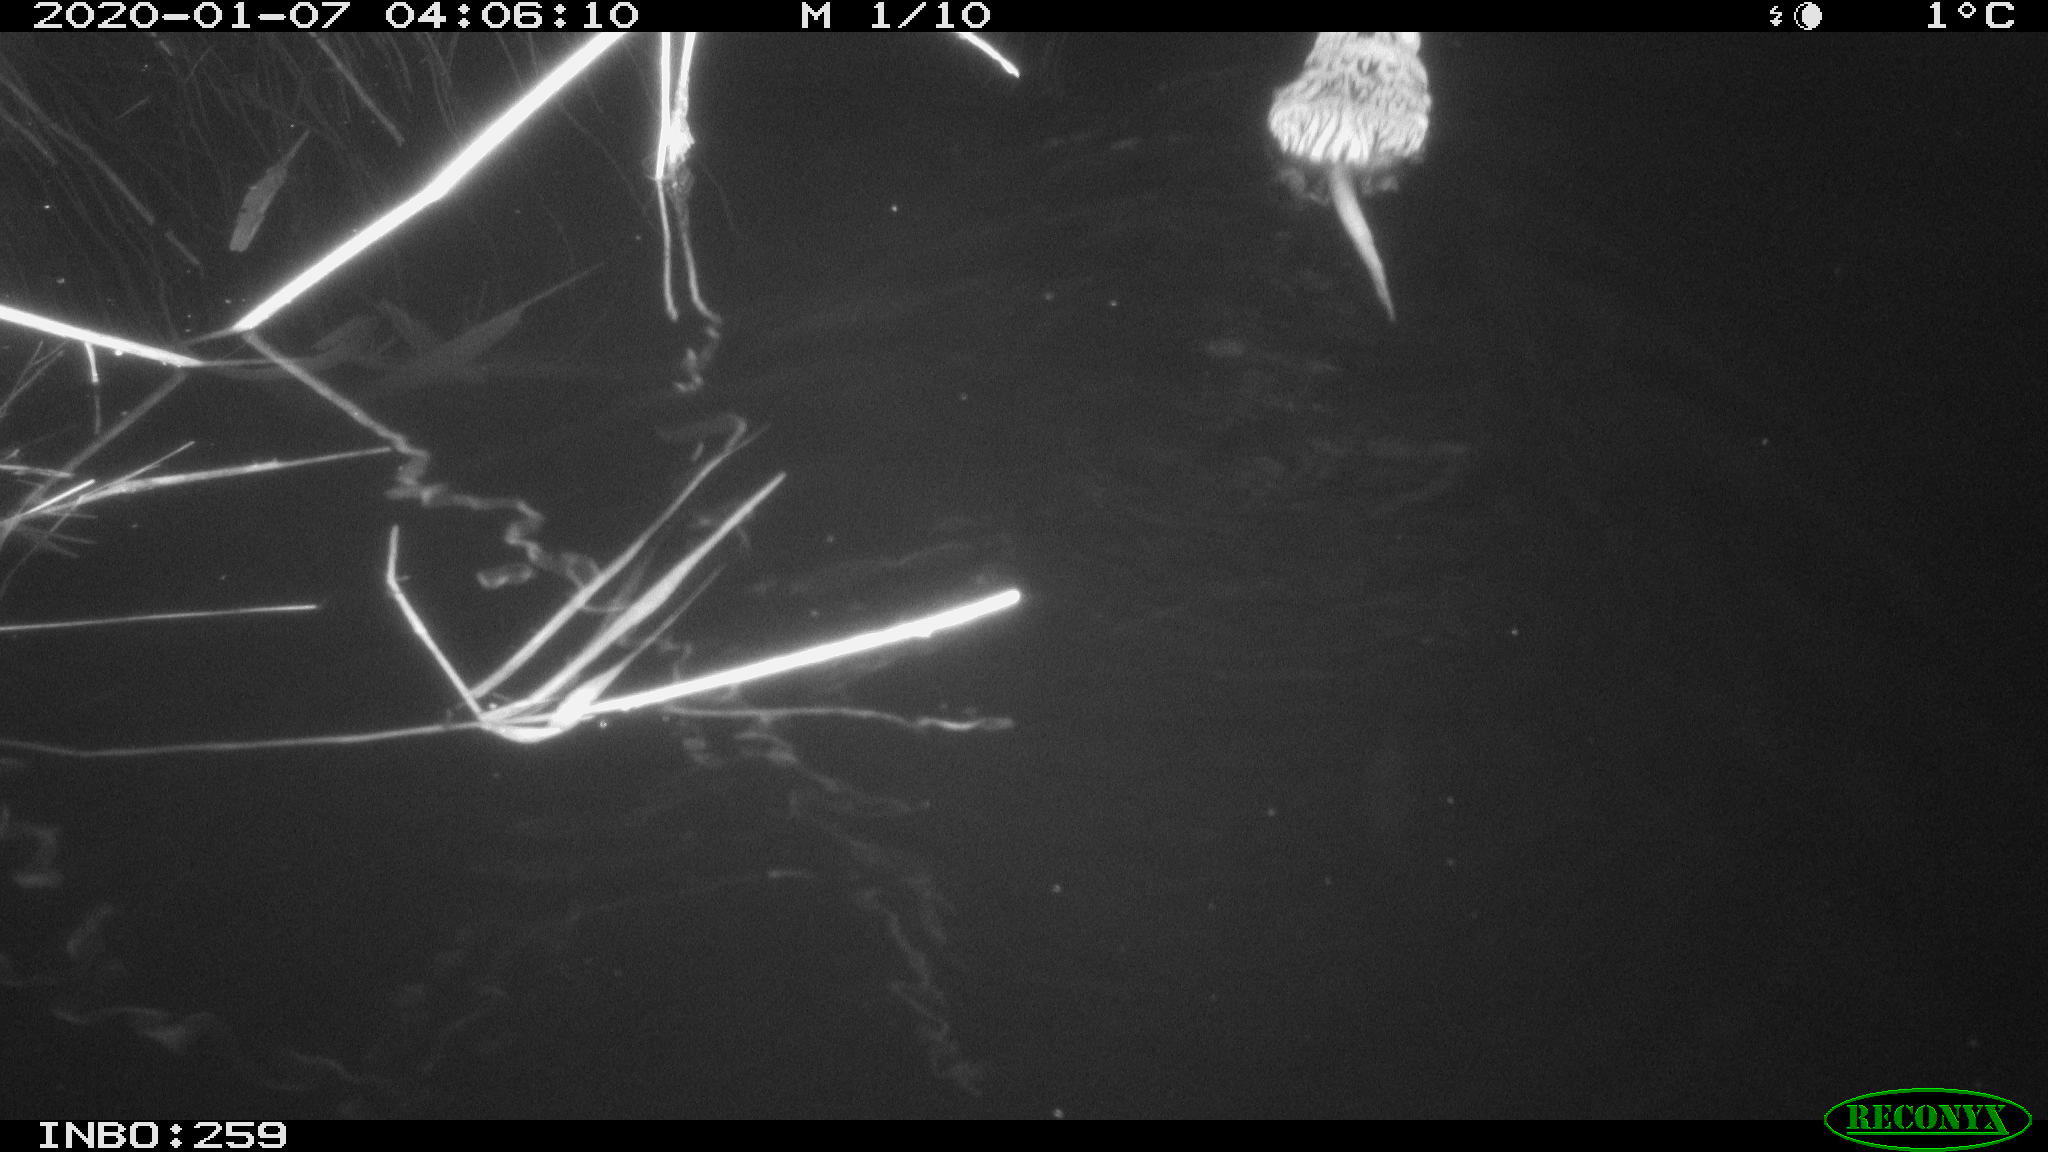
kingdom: Animalia
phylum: Chordata
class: Mammalia
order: Rodentia
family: Cricetidae
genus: Ondatra
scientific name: Ondatra zibethicus
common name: Muskrat
